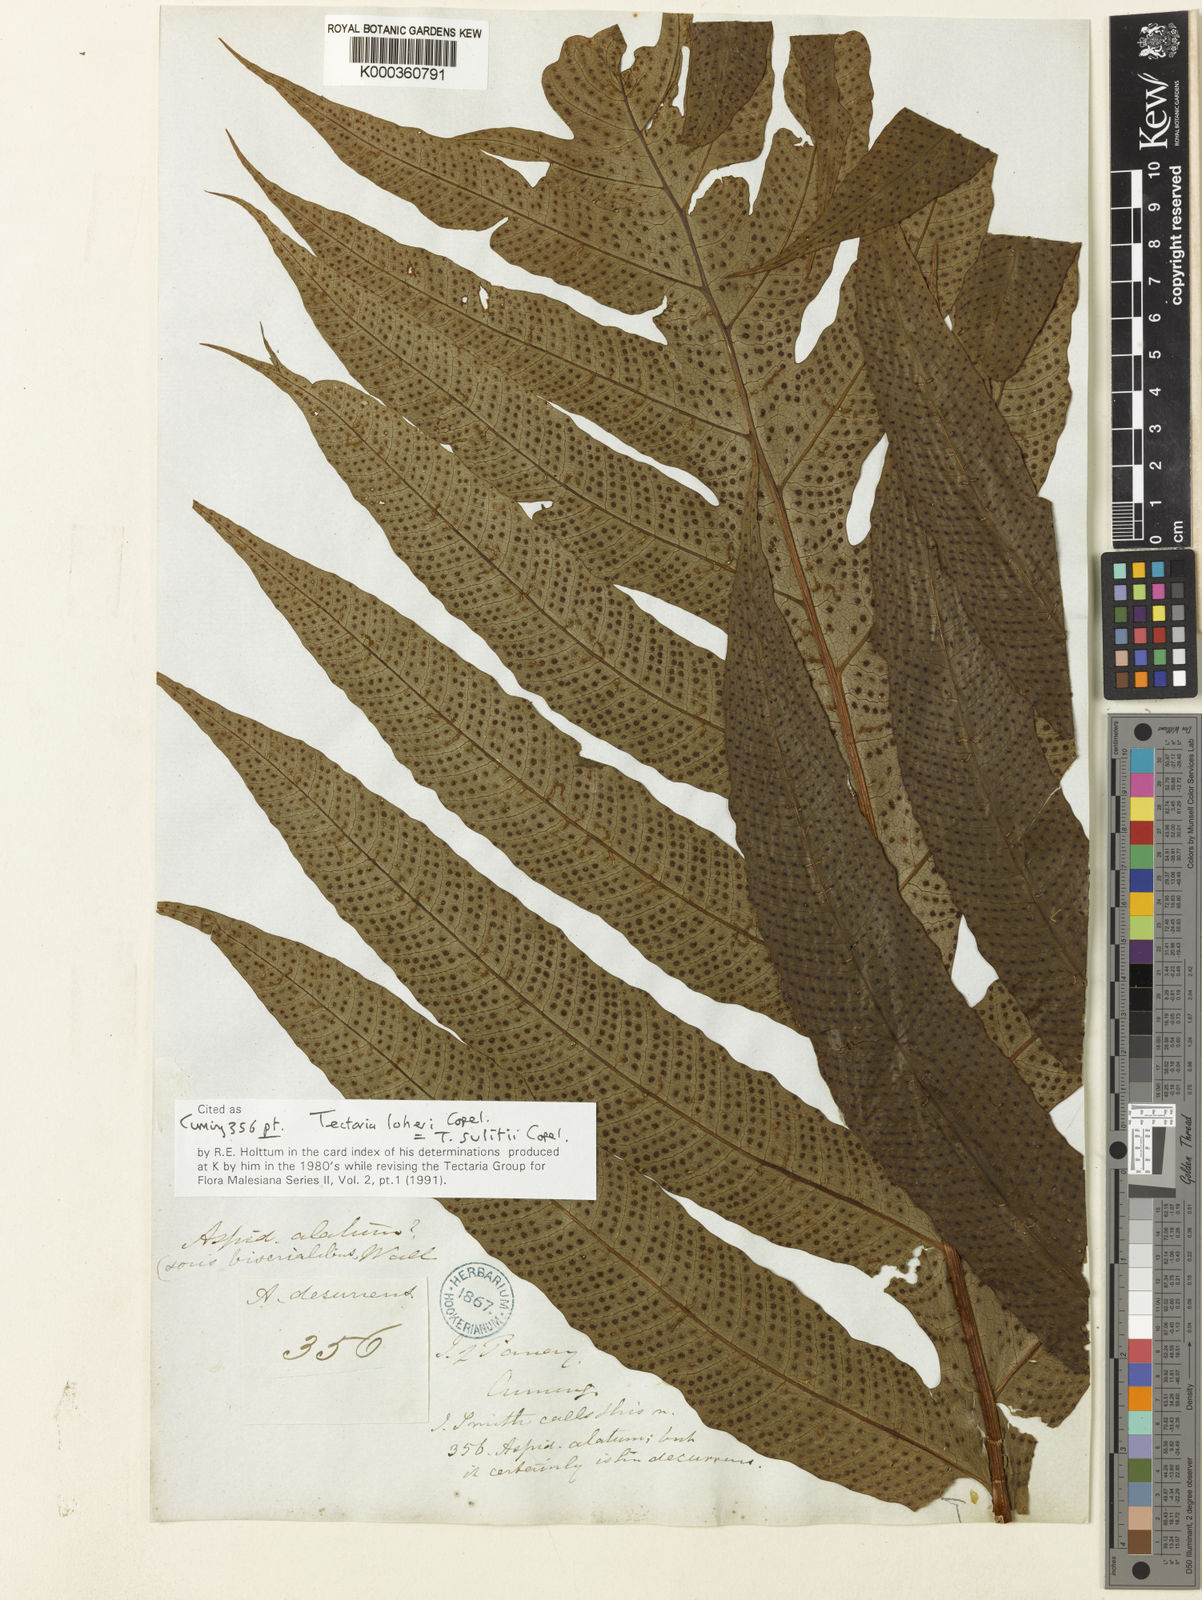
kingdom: Plantae
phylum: Tracheophyta
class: Polypodiopsida
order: Polypodiales
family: Tectariaceae
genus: Tectaria
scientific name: Tectaria sulitii
